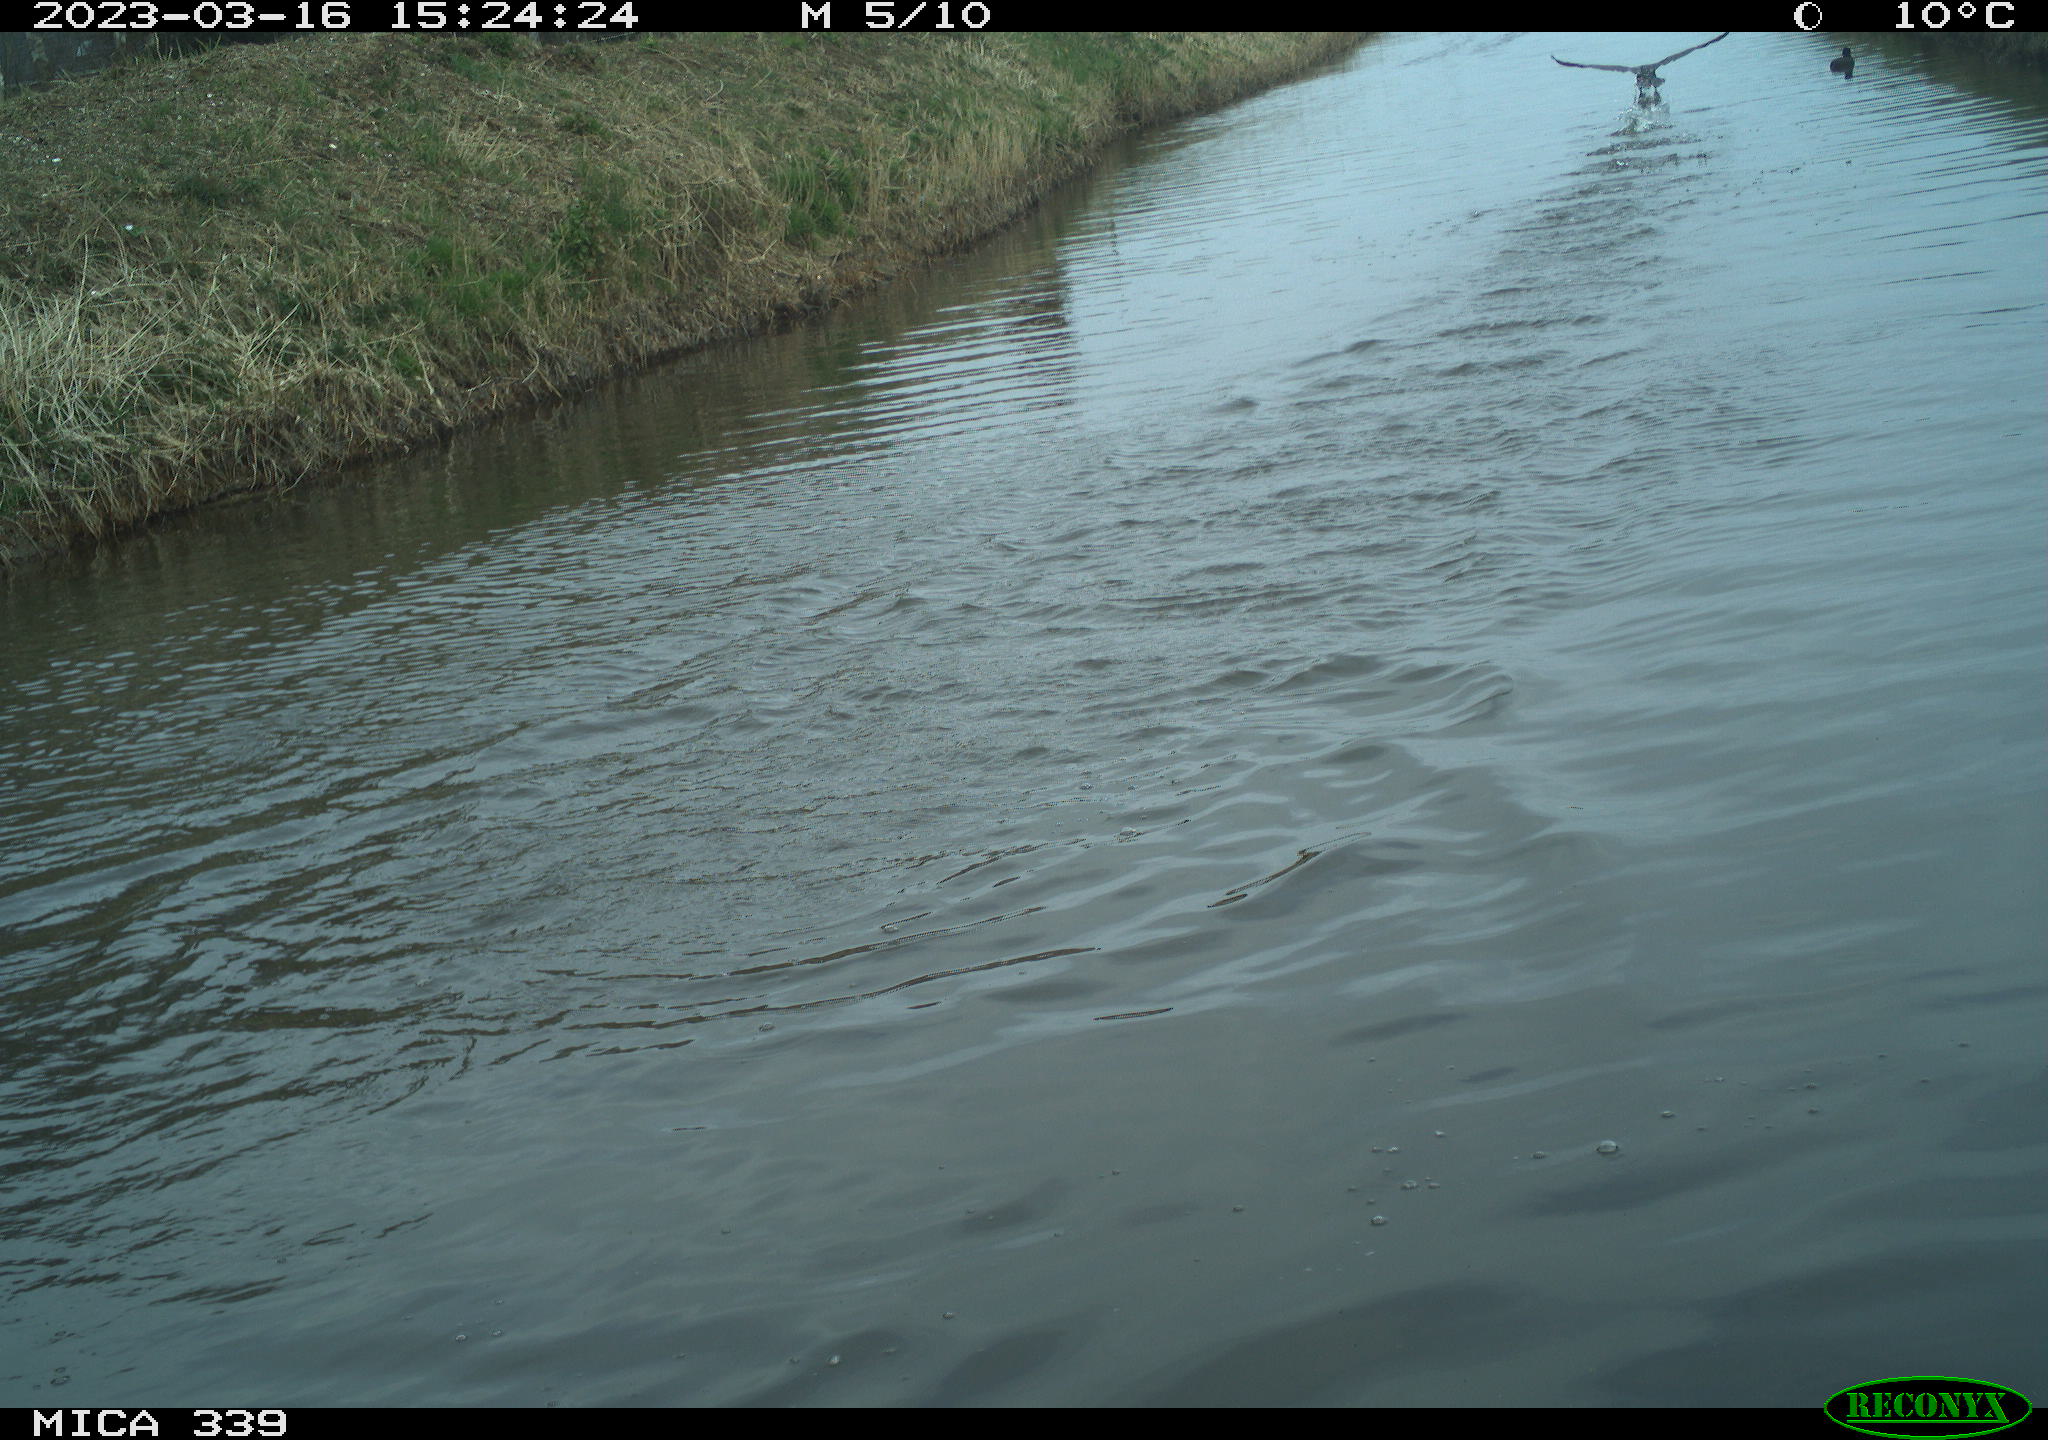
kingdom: Animalia
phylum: Chordata
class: Aves
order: Anseriformes
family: Anatidae
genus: Anas
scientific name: Anas
